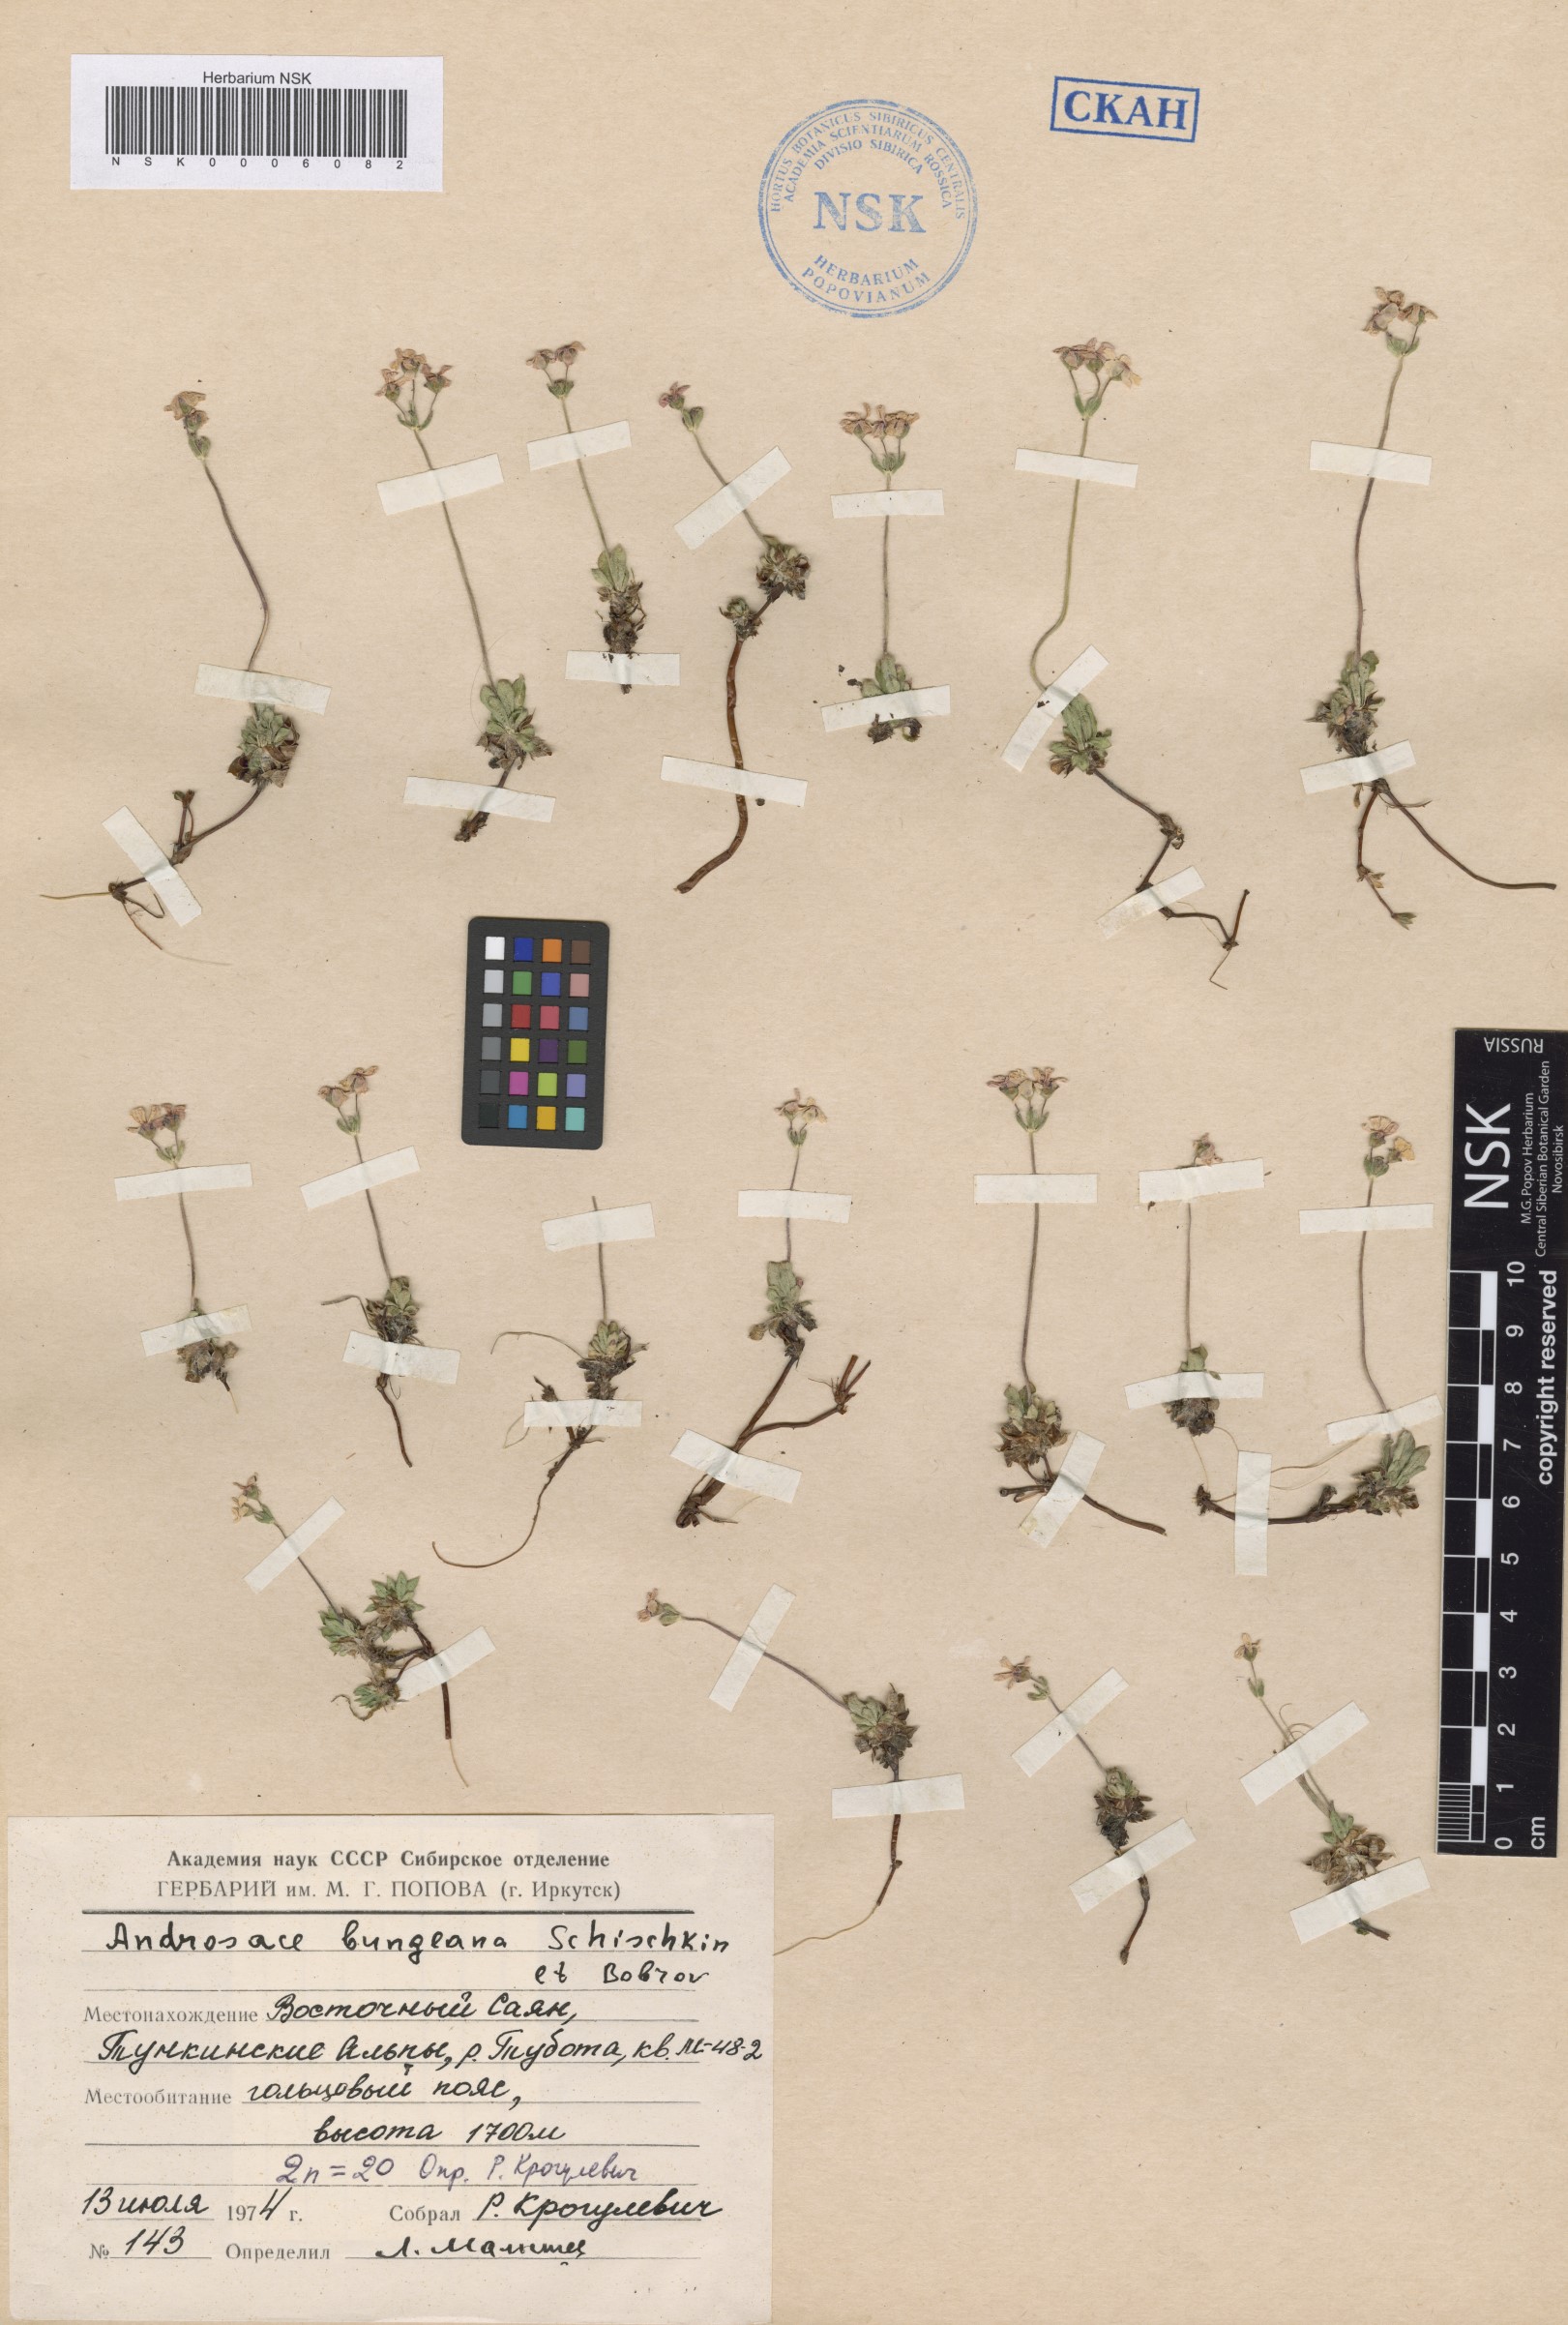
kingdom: Plantae
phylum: Tracheophyta
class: Magnoliopsida
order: Ericales
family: Primulaceae
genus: Androsace
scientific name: Androsace bungeana
